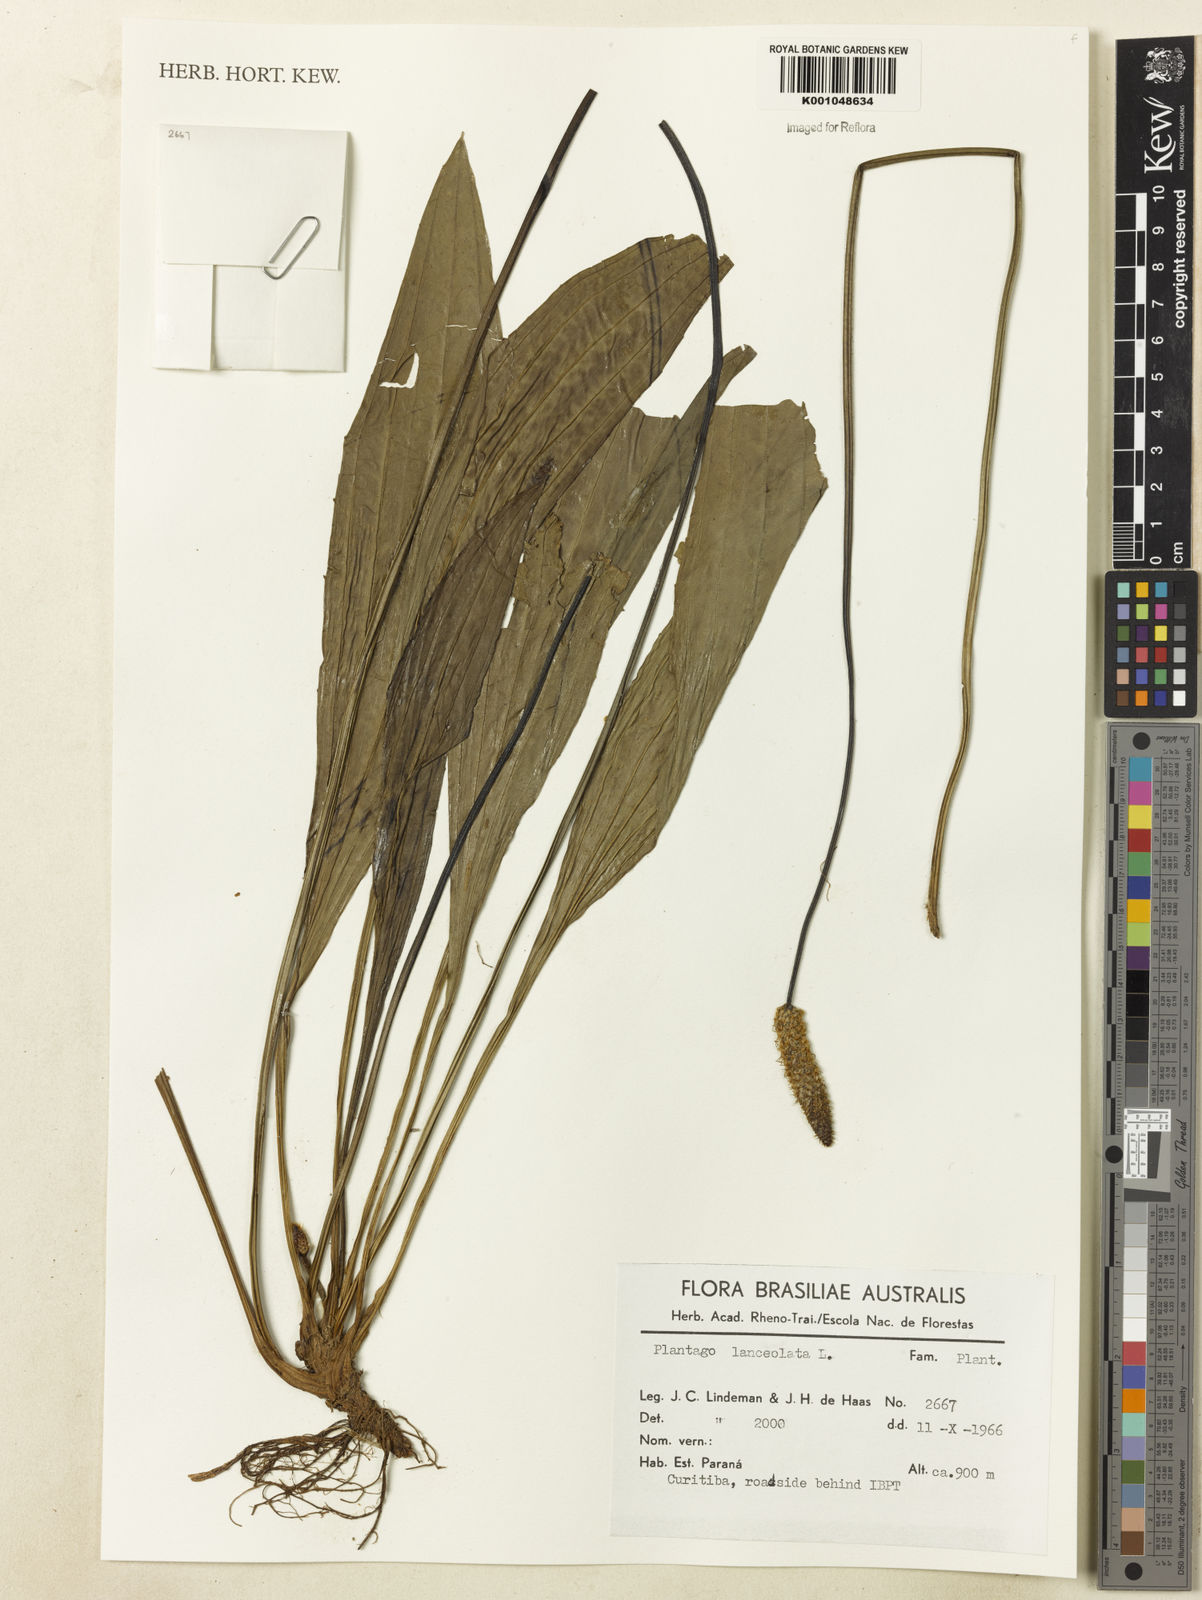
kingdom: Plantae
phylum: Tracheophyta
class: Magnoliopsida
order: Lamiales
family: Plantaginaceae
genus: Plantago
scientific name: Plantago lanceolata
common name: Ribwort plantain
